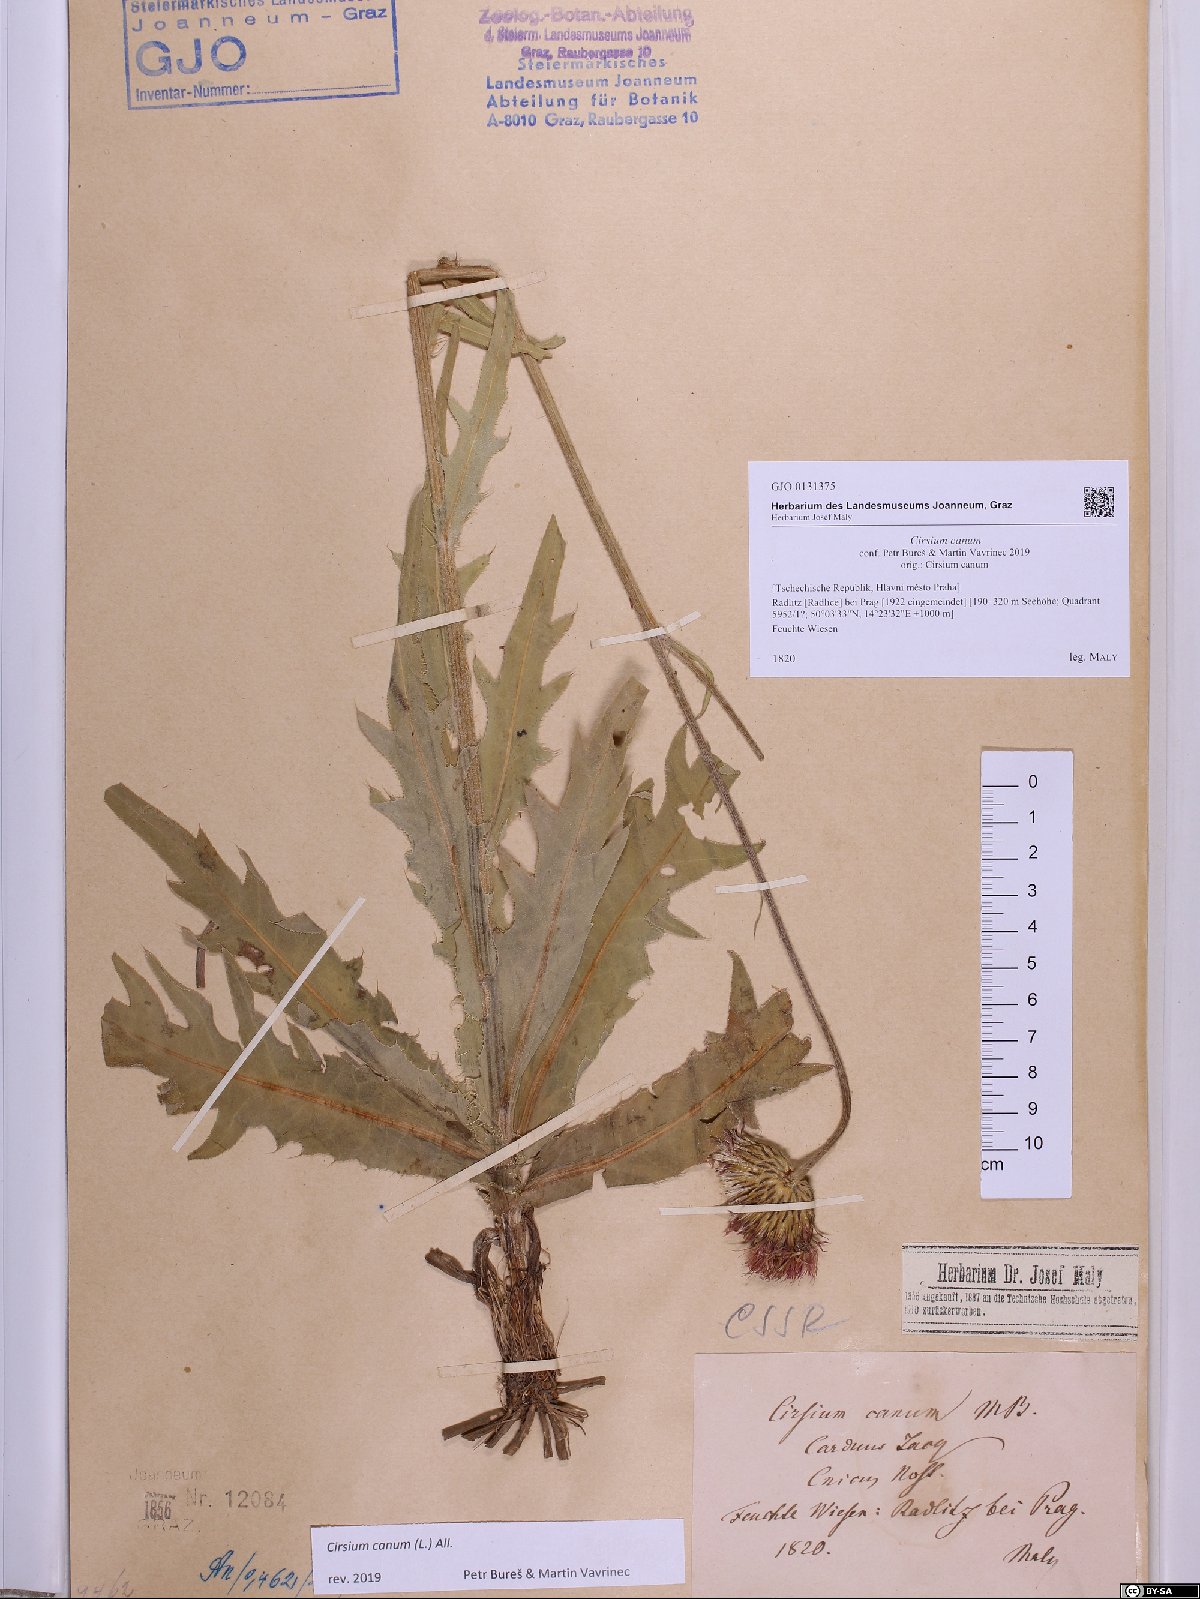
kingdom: Plantae
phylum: Tracheophyta
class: Magnoliopsida
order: Asterales
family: Asteraceae
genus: Cirsium
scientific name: Cirsium canum
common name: Queen anne's thistle
